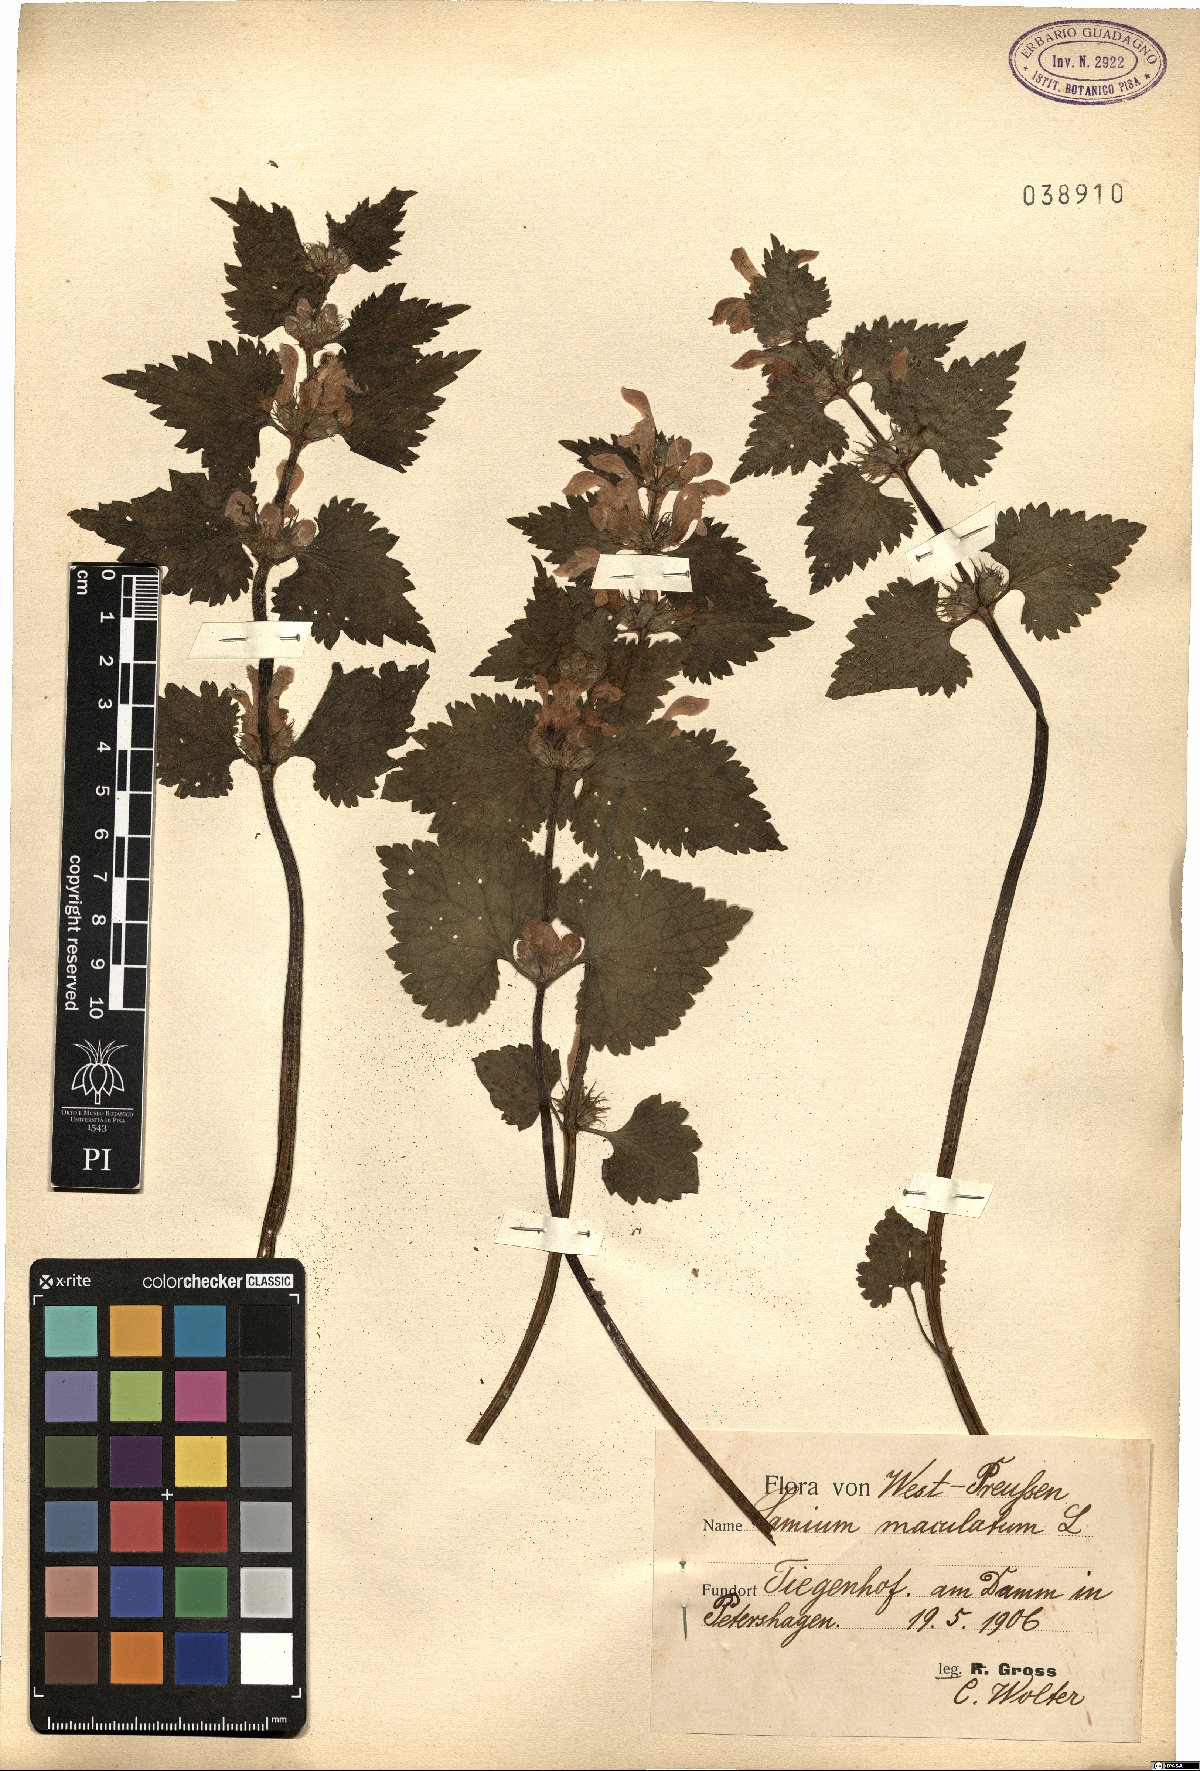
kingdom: Plantae
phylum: Tracheophyta
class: Magnoliopsida
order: Lamiales
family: Lamiaceae
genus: Lamium
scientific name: Lamium maculatum
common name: Spotted dead-nettle
